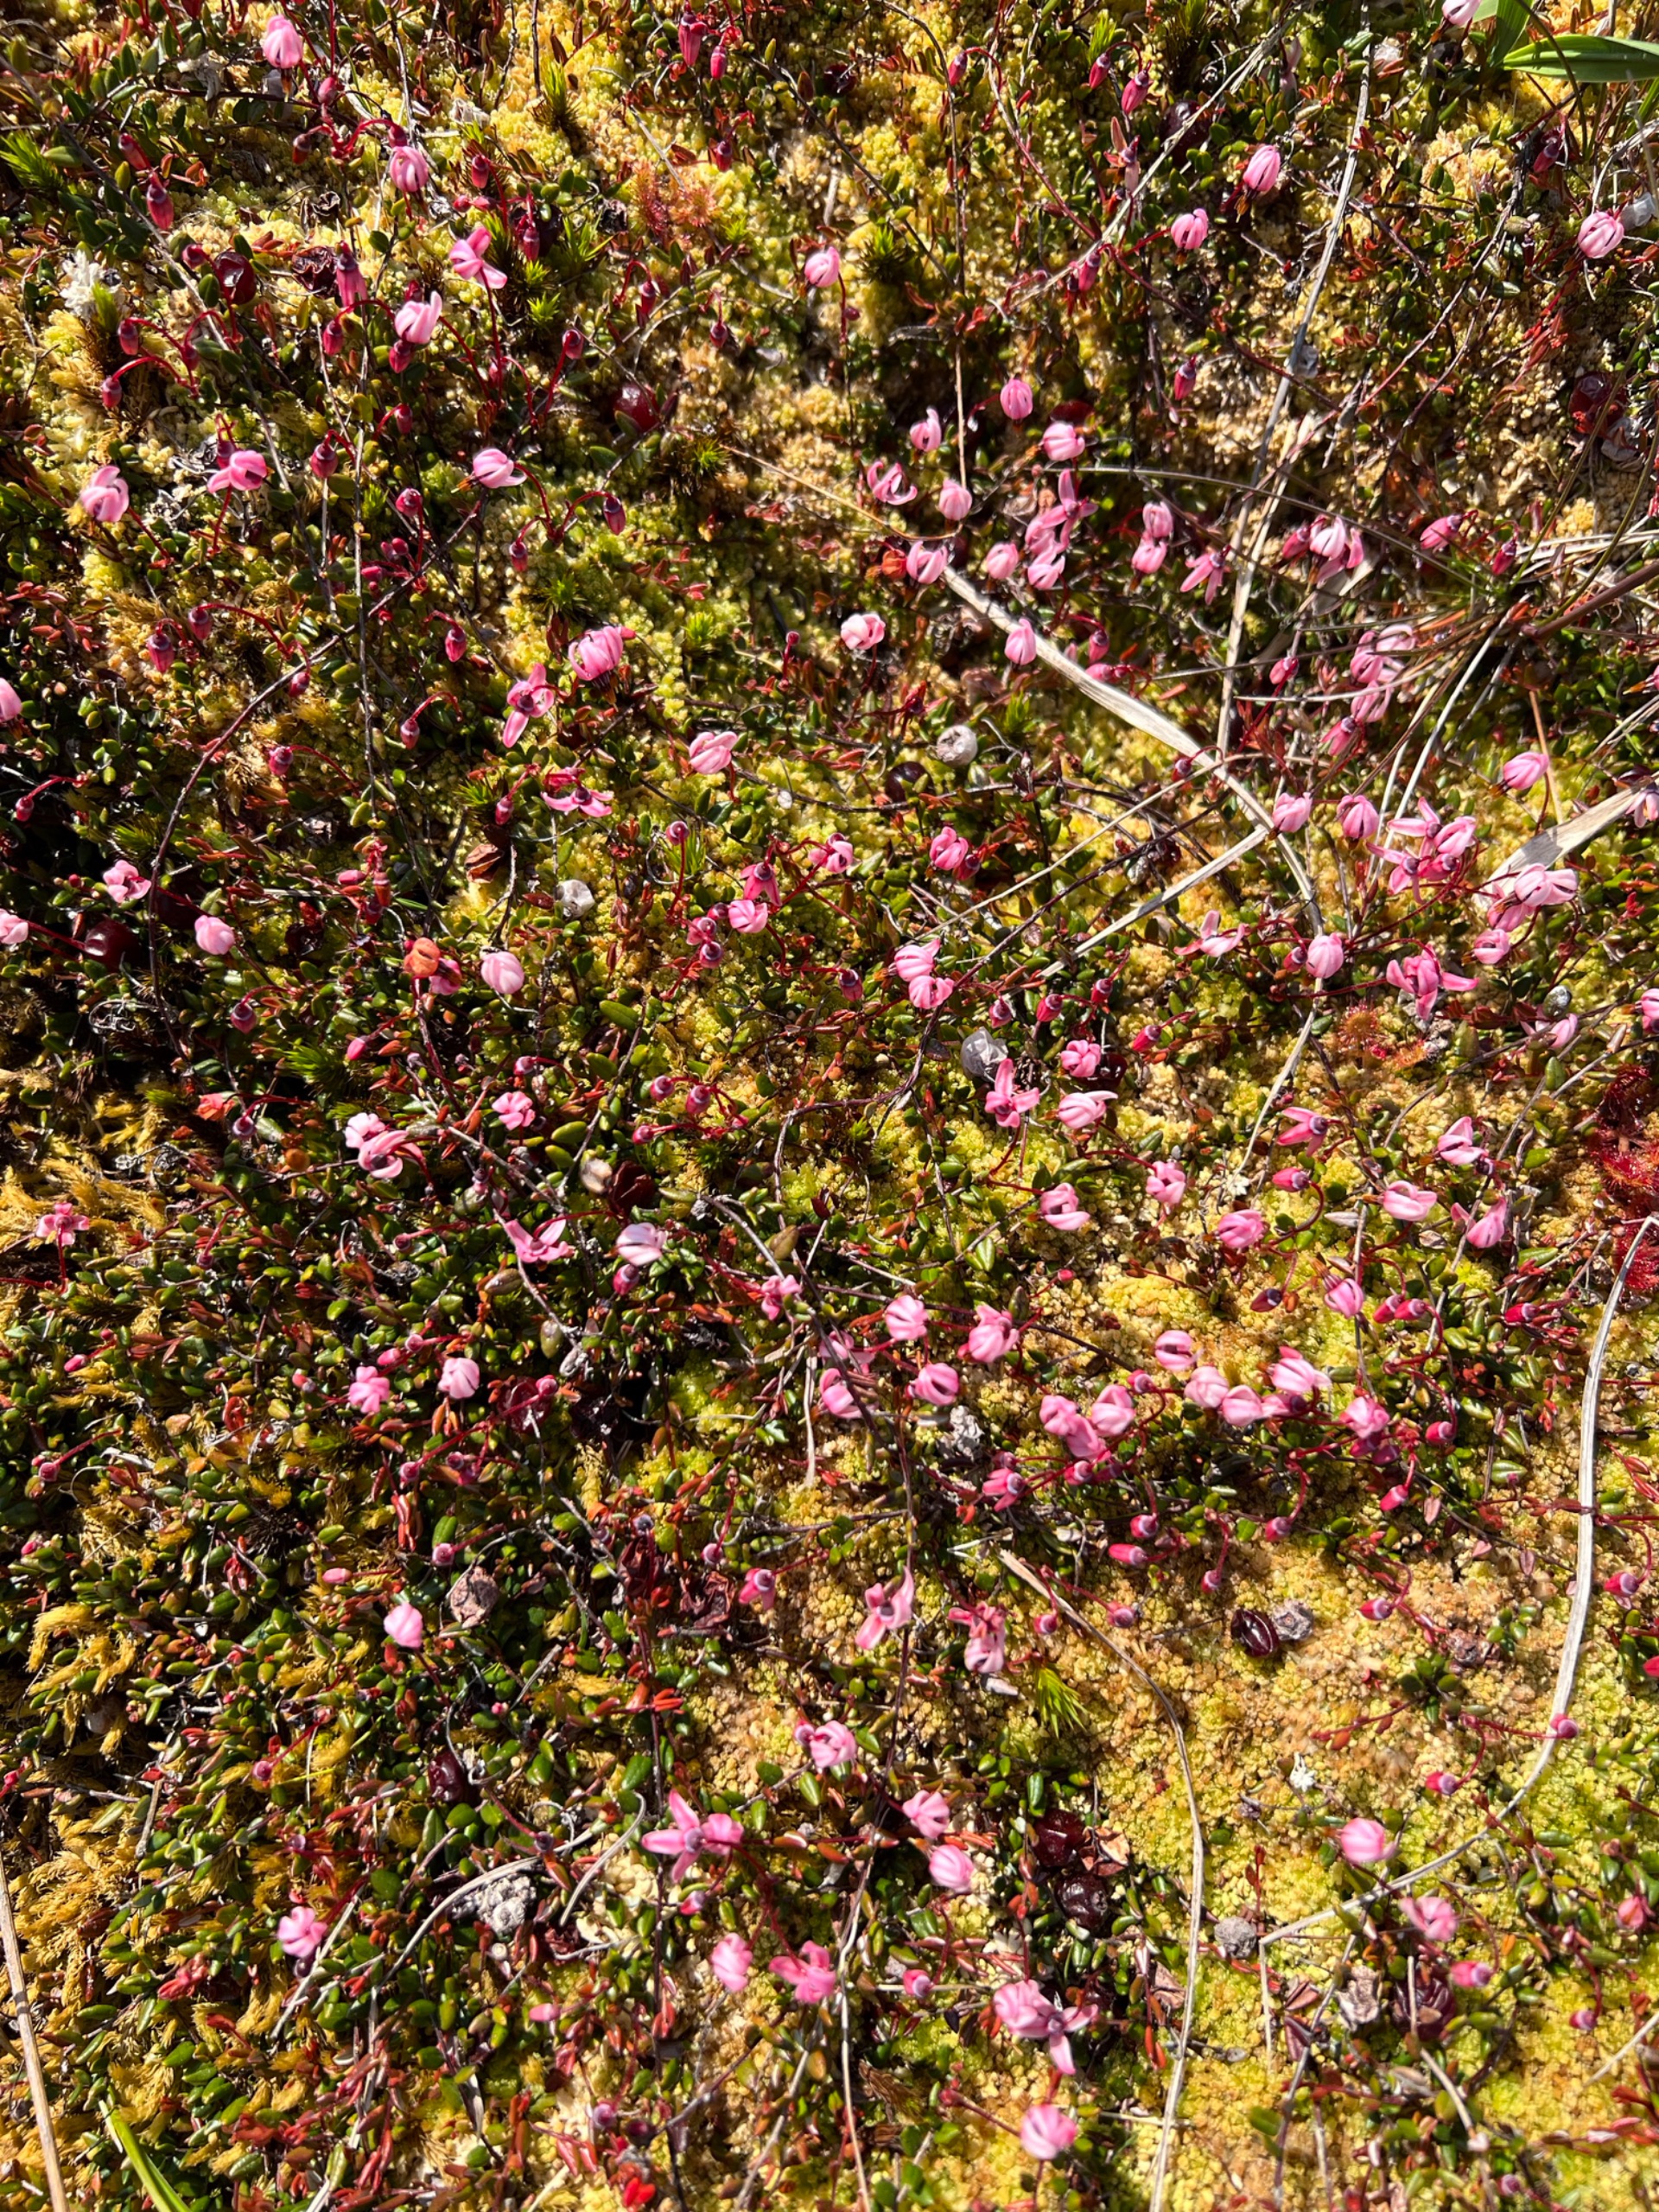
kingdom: Plantae
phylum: Tracheophyta
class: Magnoliopsida
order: Ericales
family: Ericaceae
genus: Vaccinium
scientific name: Vaccinium oxycoccos
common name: Tranebær
